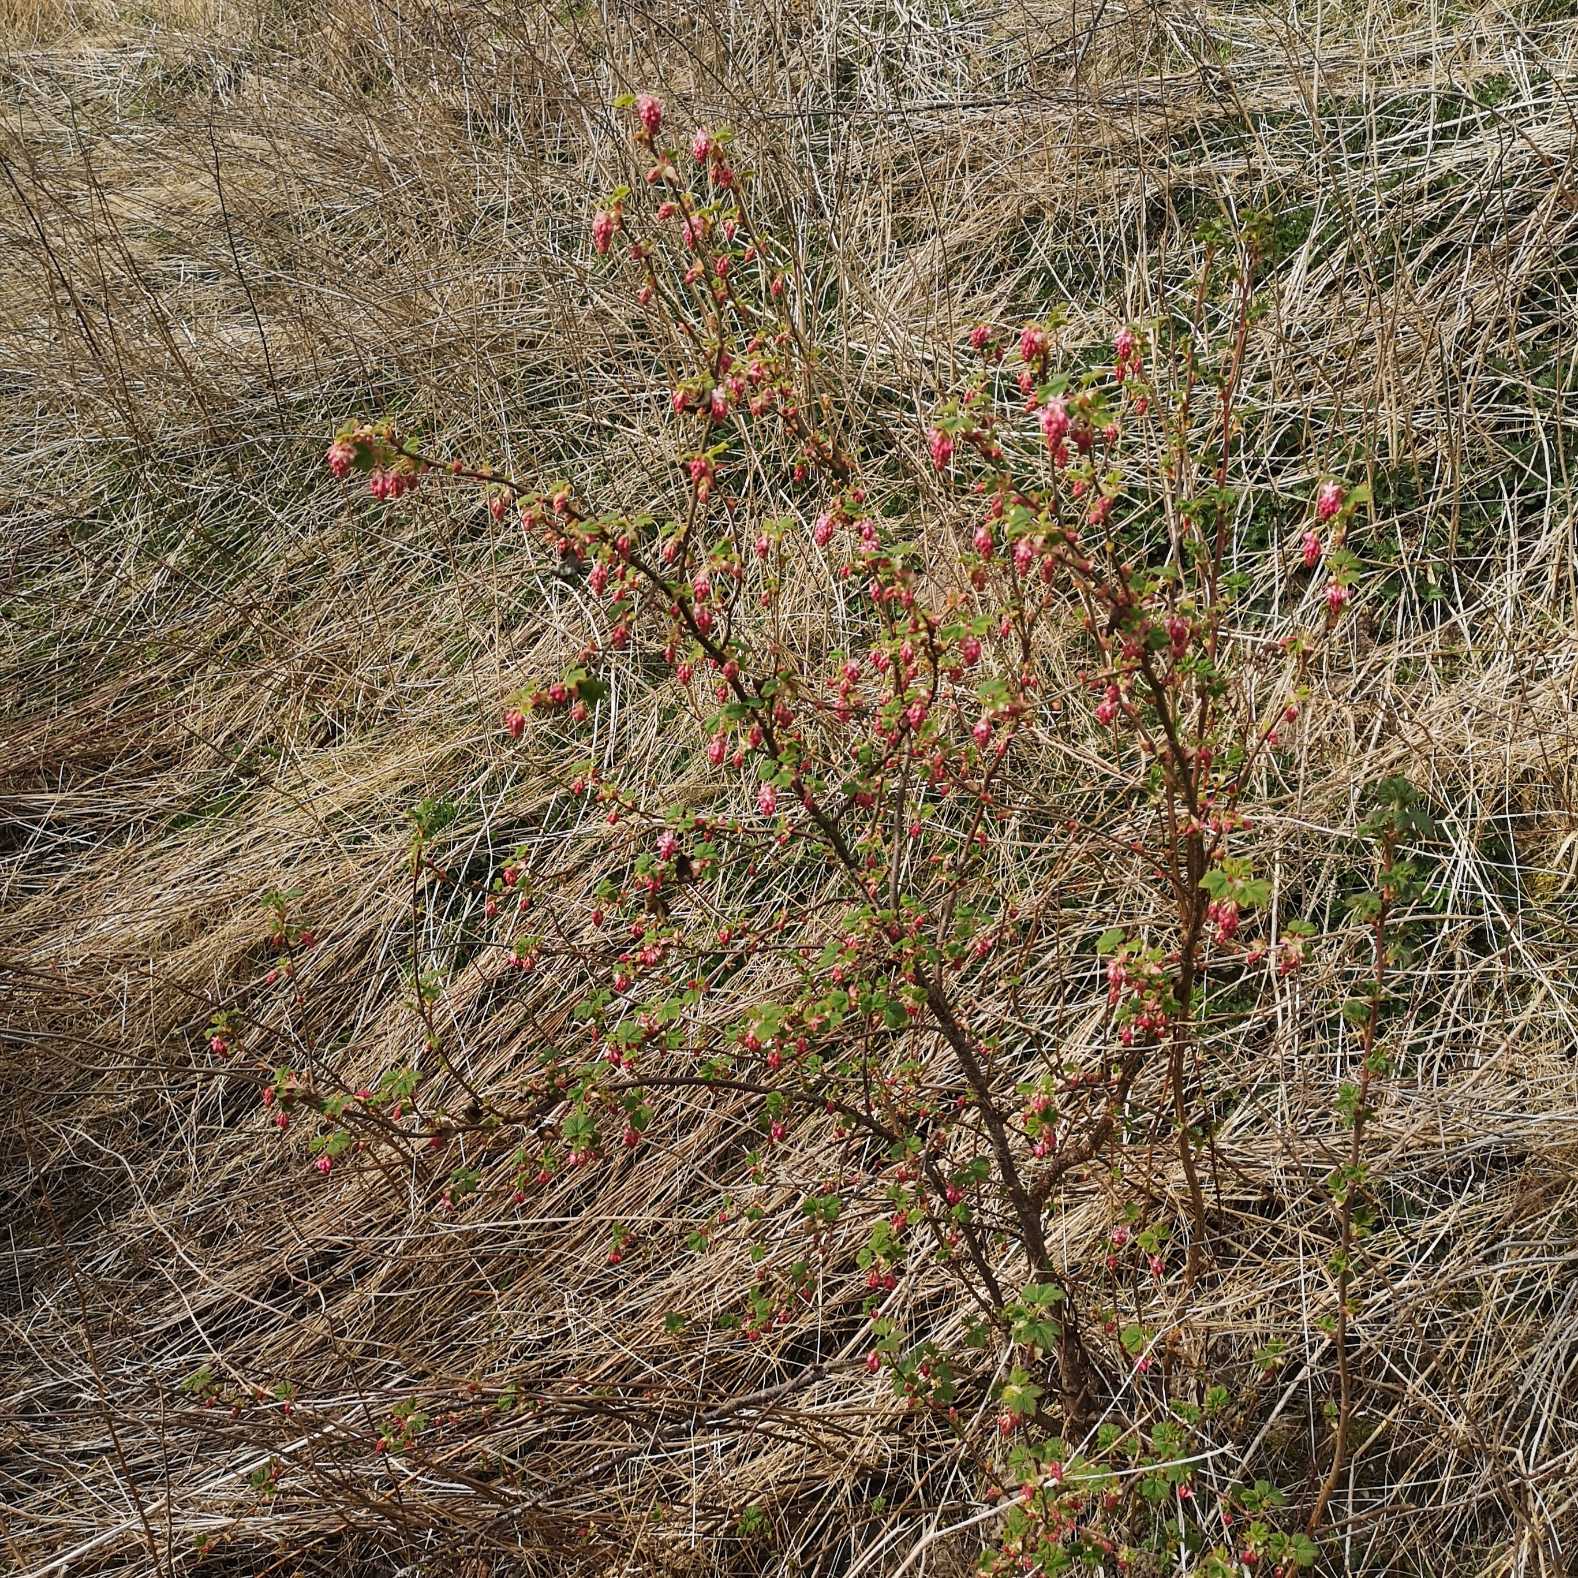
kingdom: Plantae
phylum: Tracheophyta
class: Magnoliopsida
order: Saxifragales
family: Grossulariaceae
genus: Ribes
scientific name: Ribes sanguineum
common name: Blod-ribs
